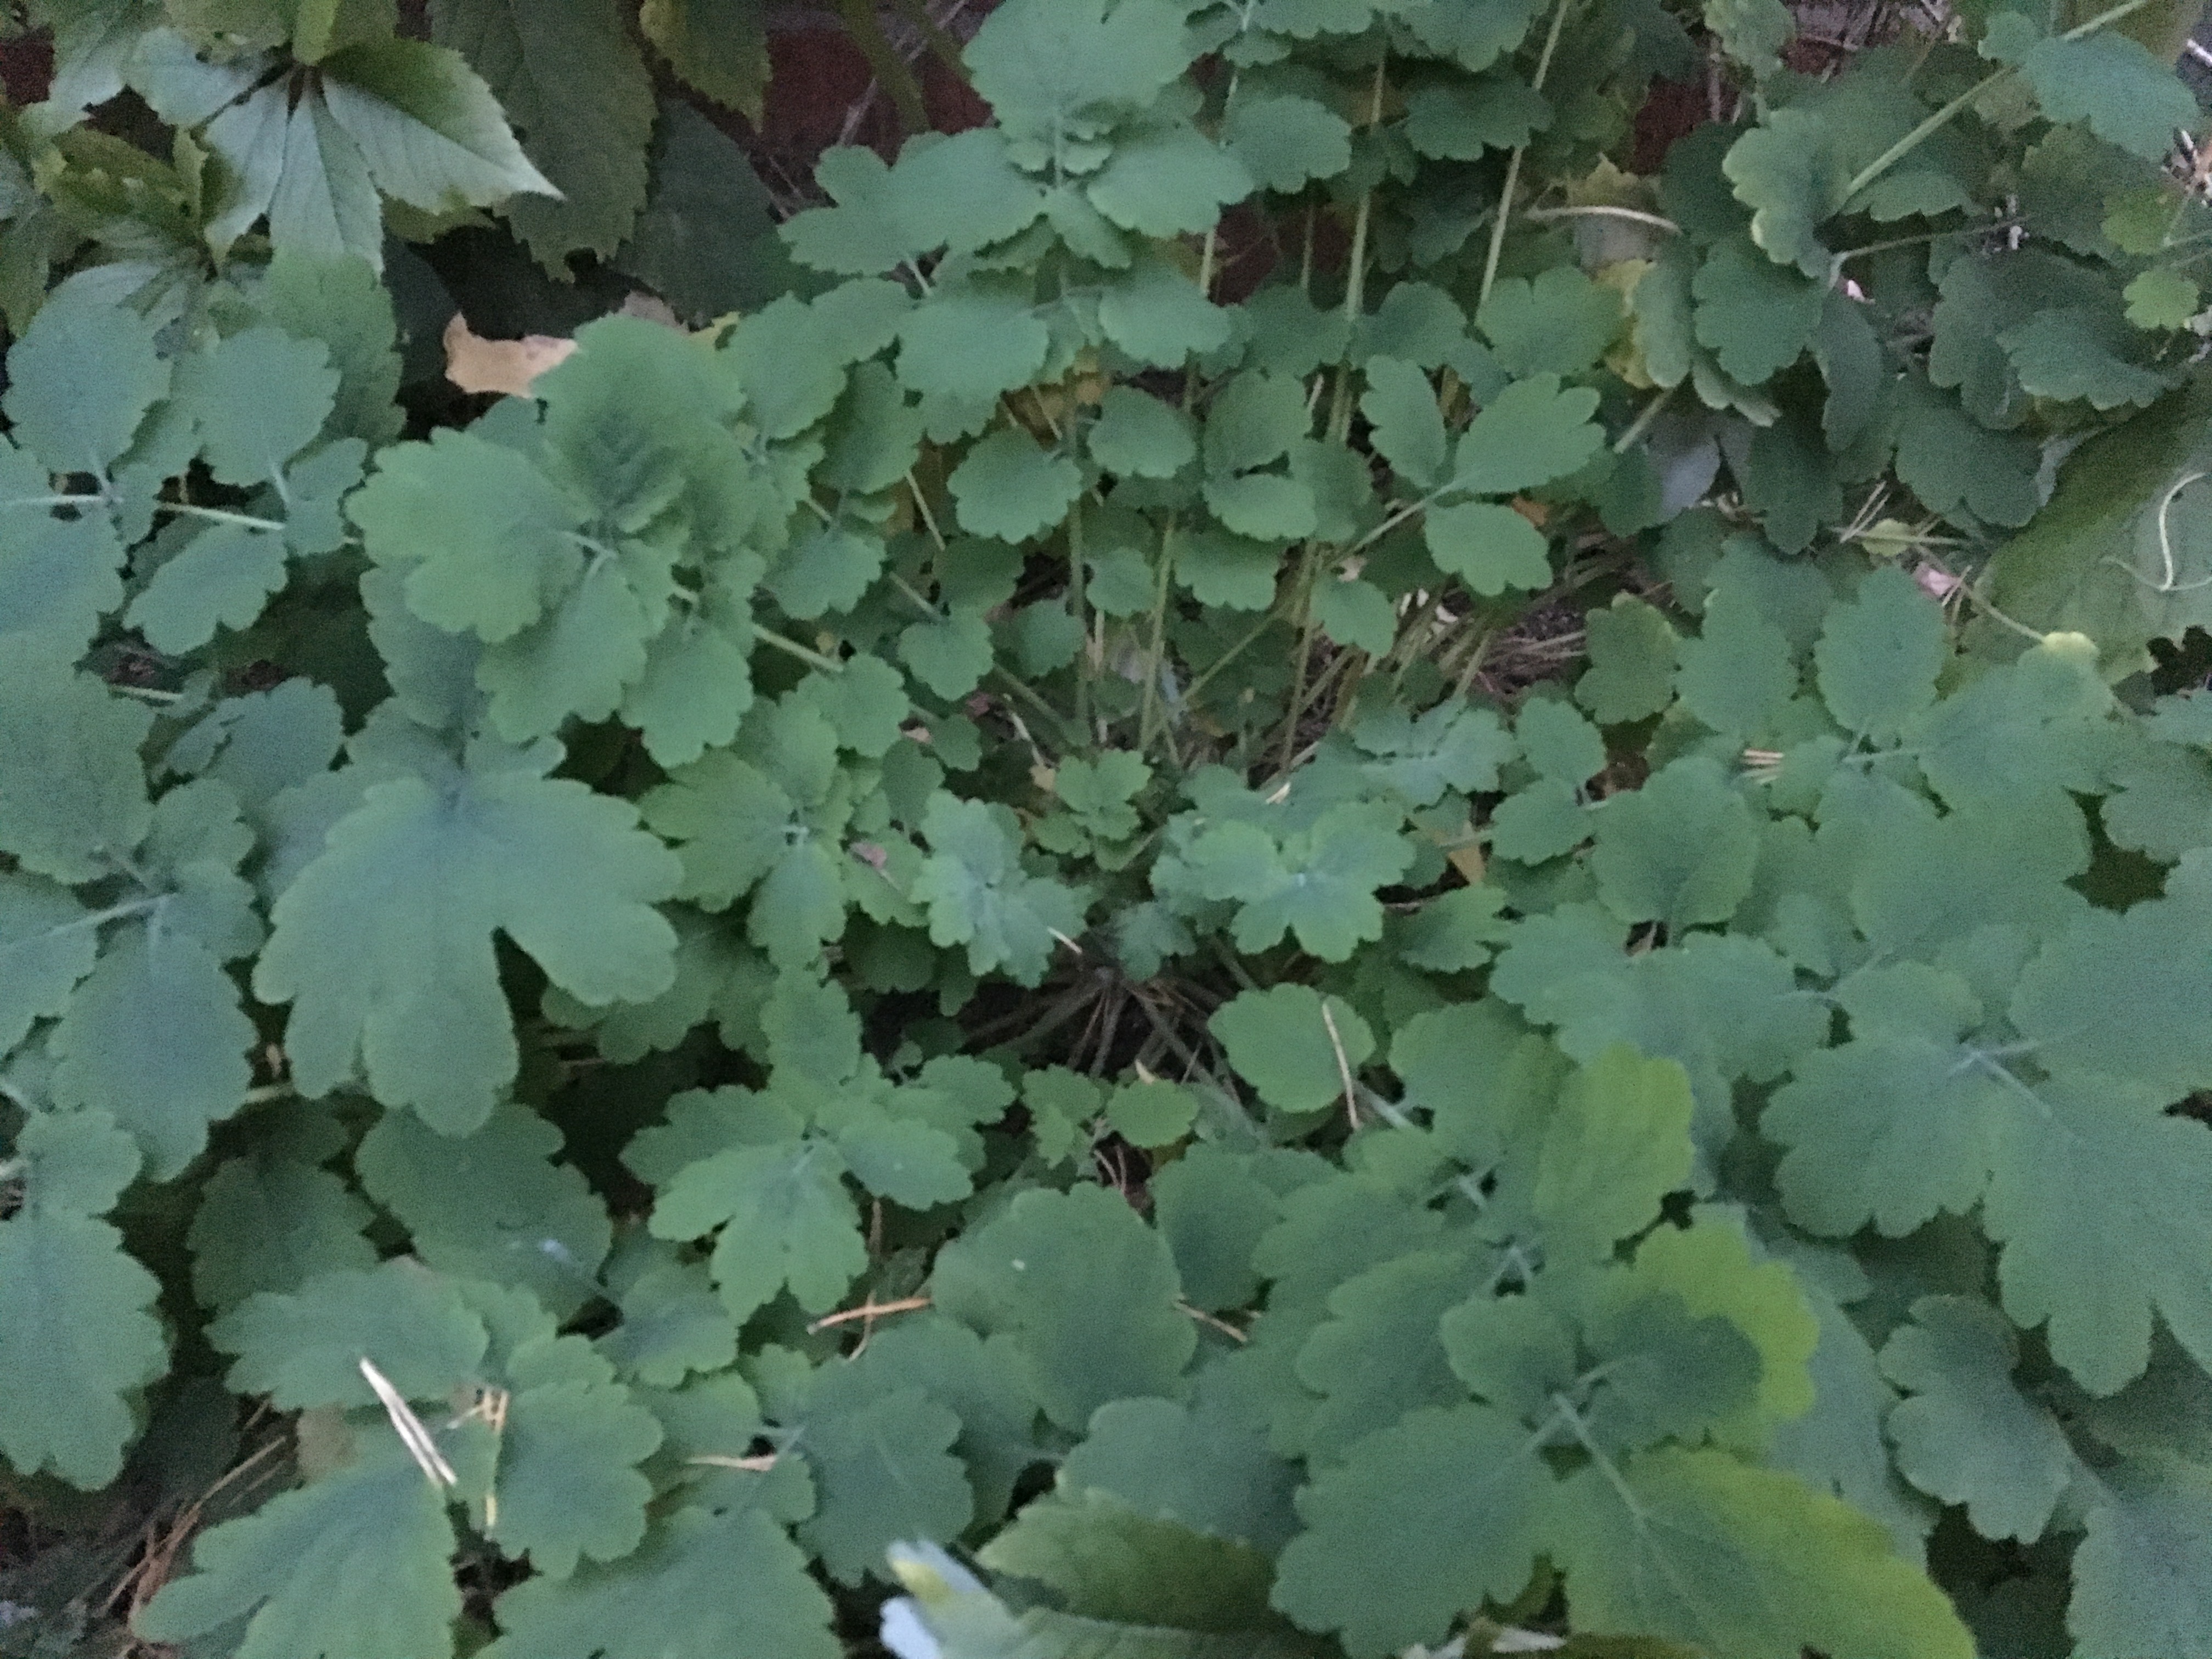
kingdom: Plantae
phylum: Tracheophyta
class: Magnoliopsida
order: Ranunculales
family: Papaveraceae
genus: Chelidonium
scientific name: Chelidonium majus
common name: Greater celandine
